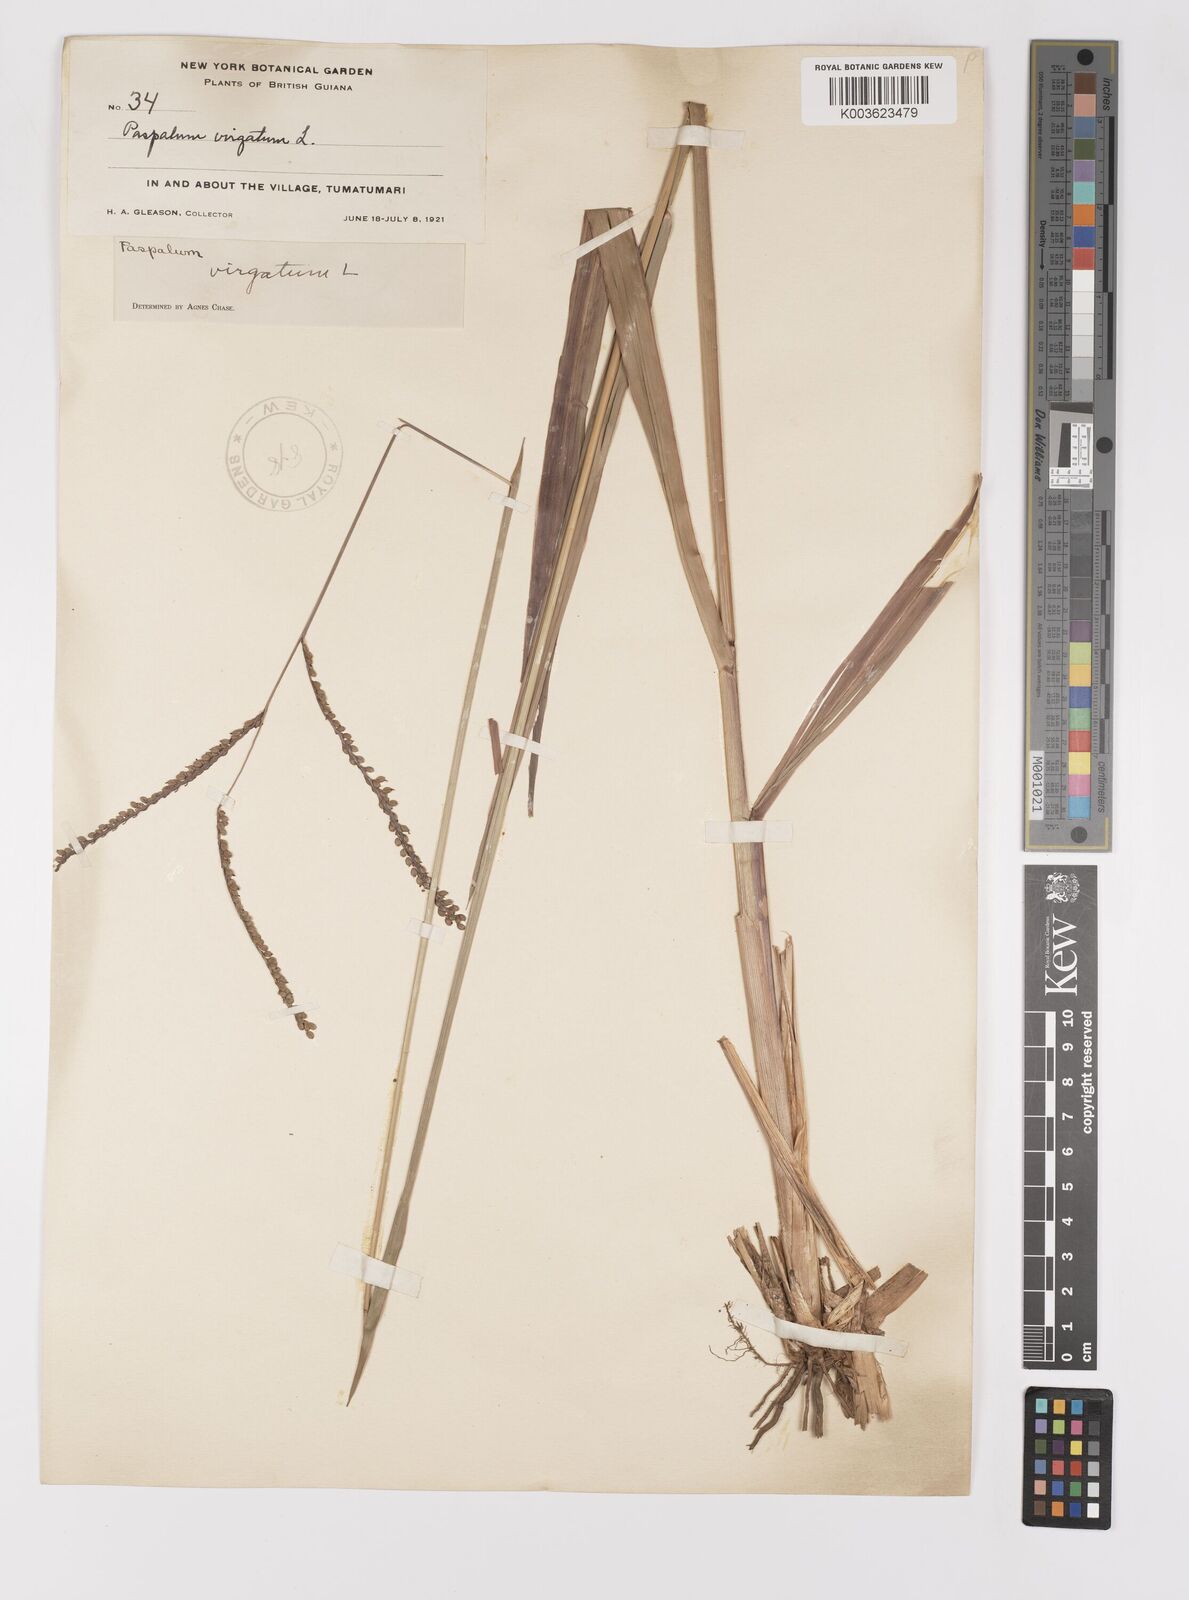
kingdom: Plantae
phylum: Tracheophyta
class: Liliopsida
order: Poales
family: Poaceae
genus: Paspalum
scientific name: Paspalum virgatum
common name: Talquezal
